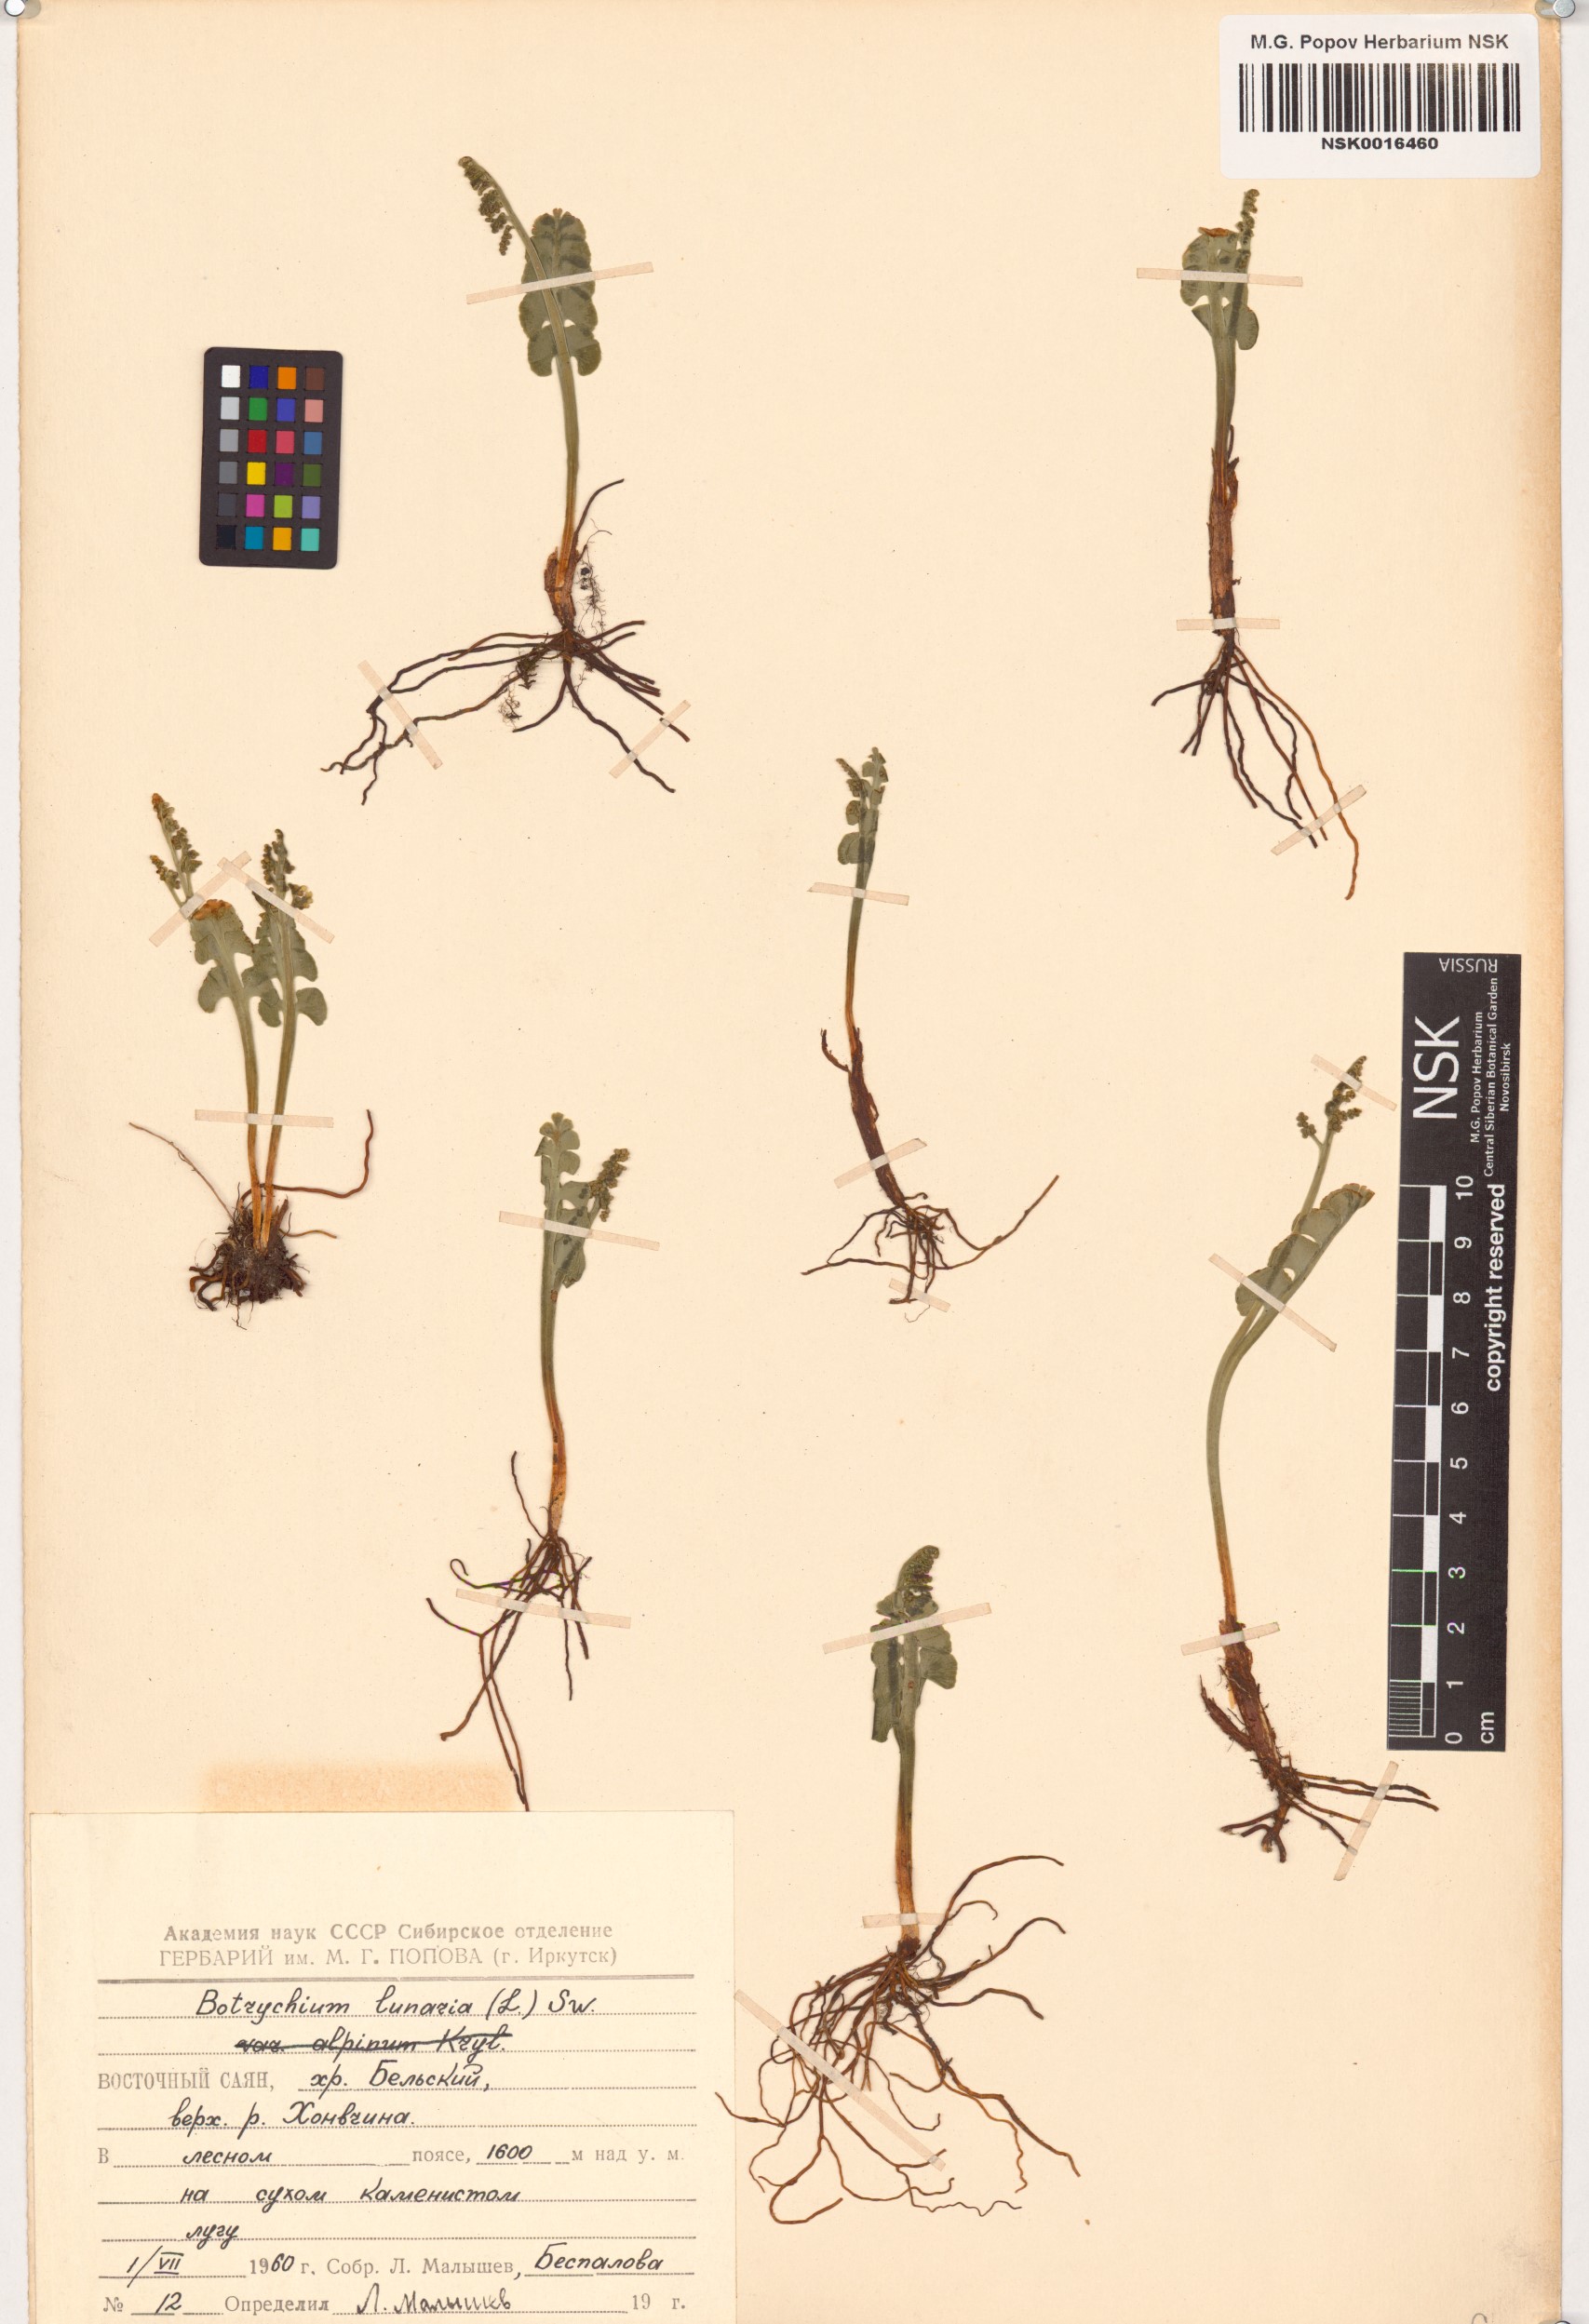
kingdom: Plantae
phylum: Tracheophyta
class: Polypodiopsida
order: Ophioglossales
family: Ophioglossaceae
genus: Botrychium
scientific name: Botrychium lunaria
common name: Moonwort
